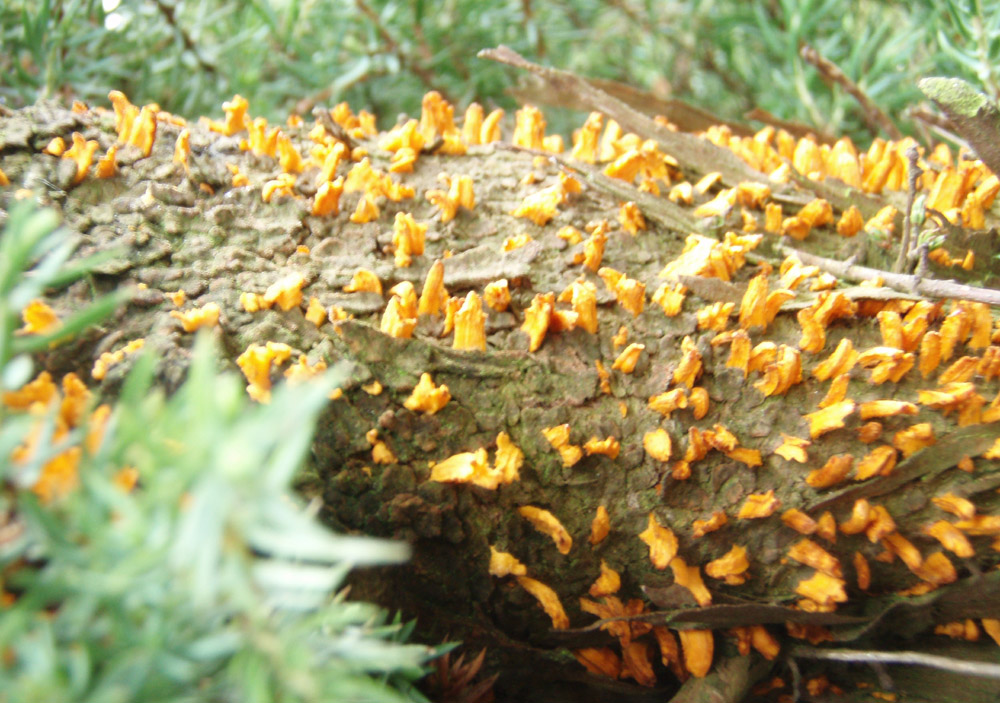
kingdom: Fungi
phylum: Basidiomycota
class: Pucciniomycetes
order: Pucciniales
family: Gymnosporangiaceae
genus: Gymnosporangium
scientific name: Gymnosporangium clavariiforme
